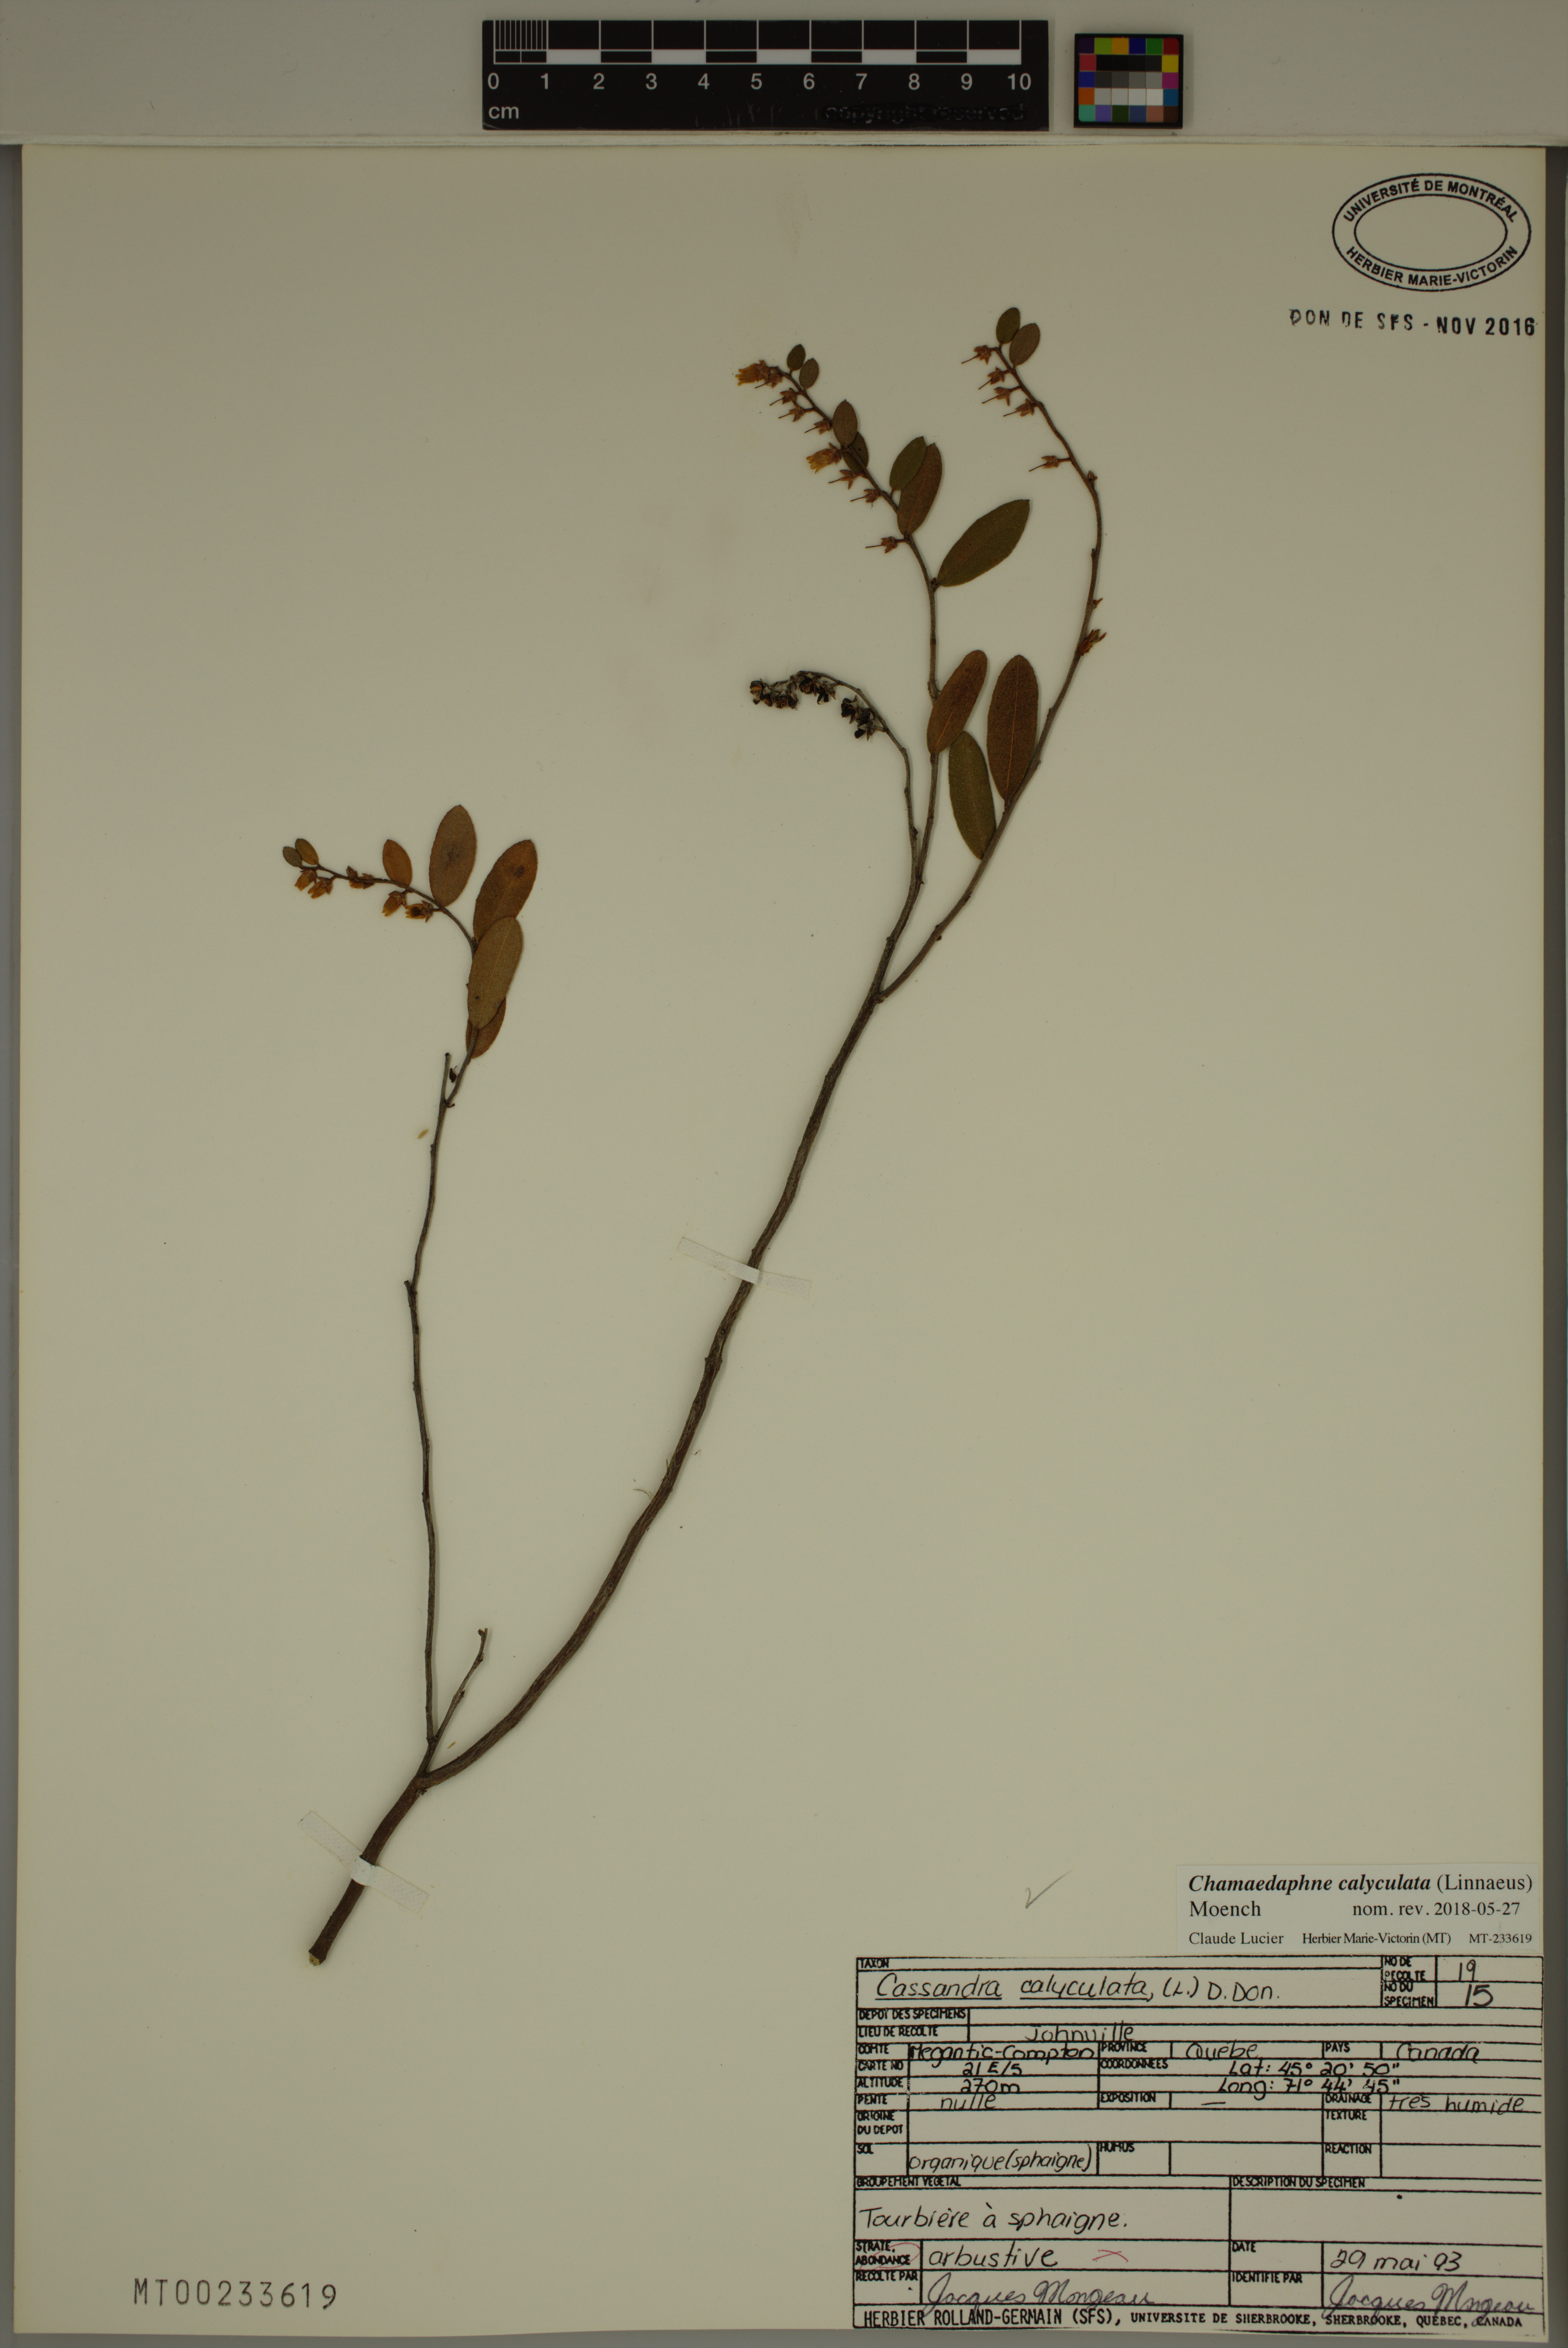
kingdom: Plantae
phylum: Tracheophyta
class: Magnoliopsida
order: Ericales
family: Ericaceae
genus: Chamaedaphne
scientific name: Chamaedaphne calyculata
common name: Leatherleaf
